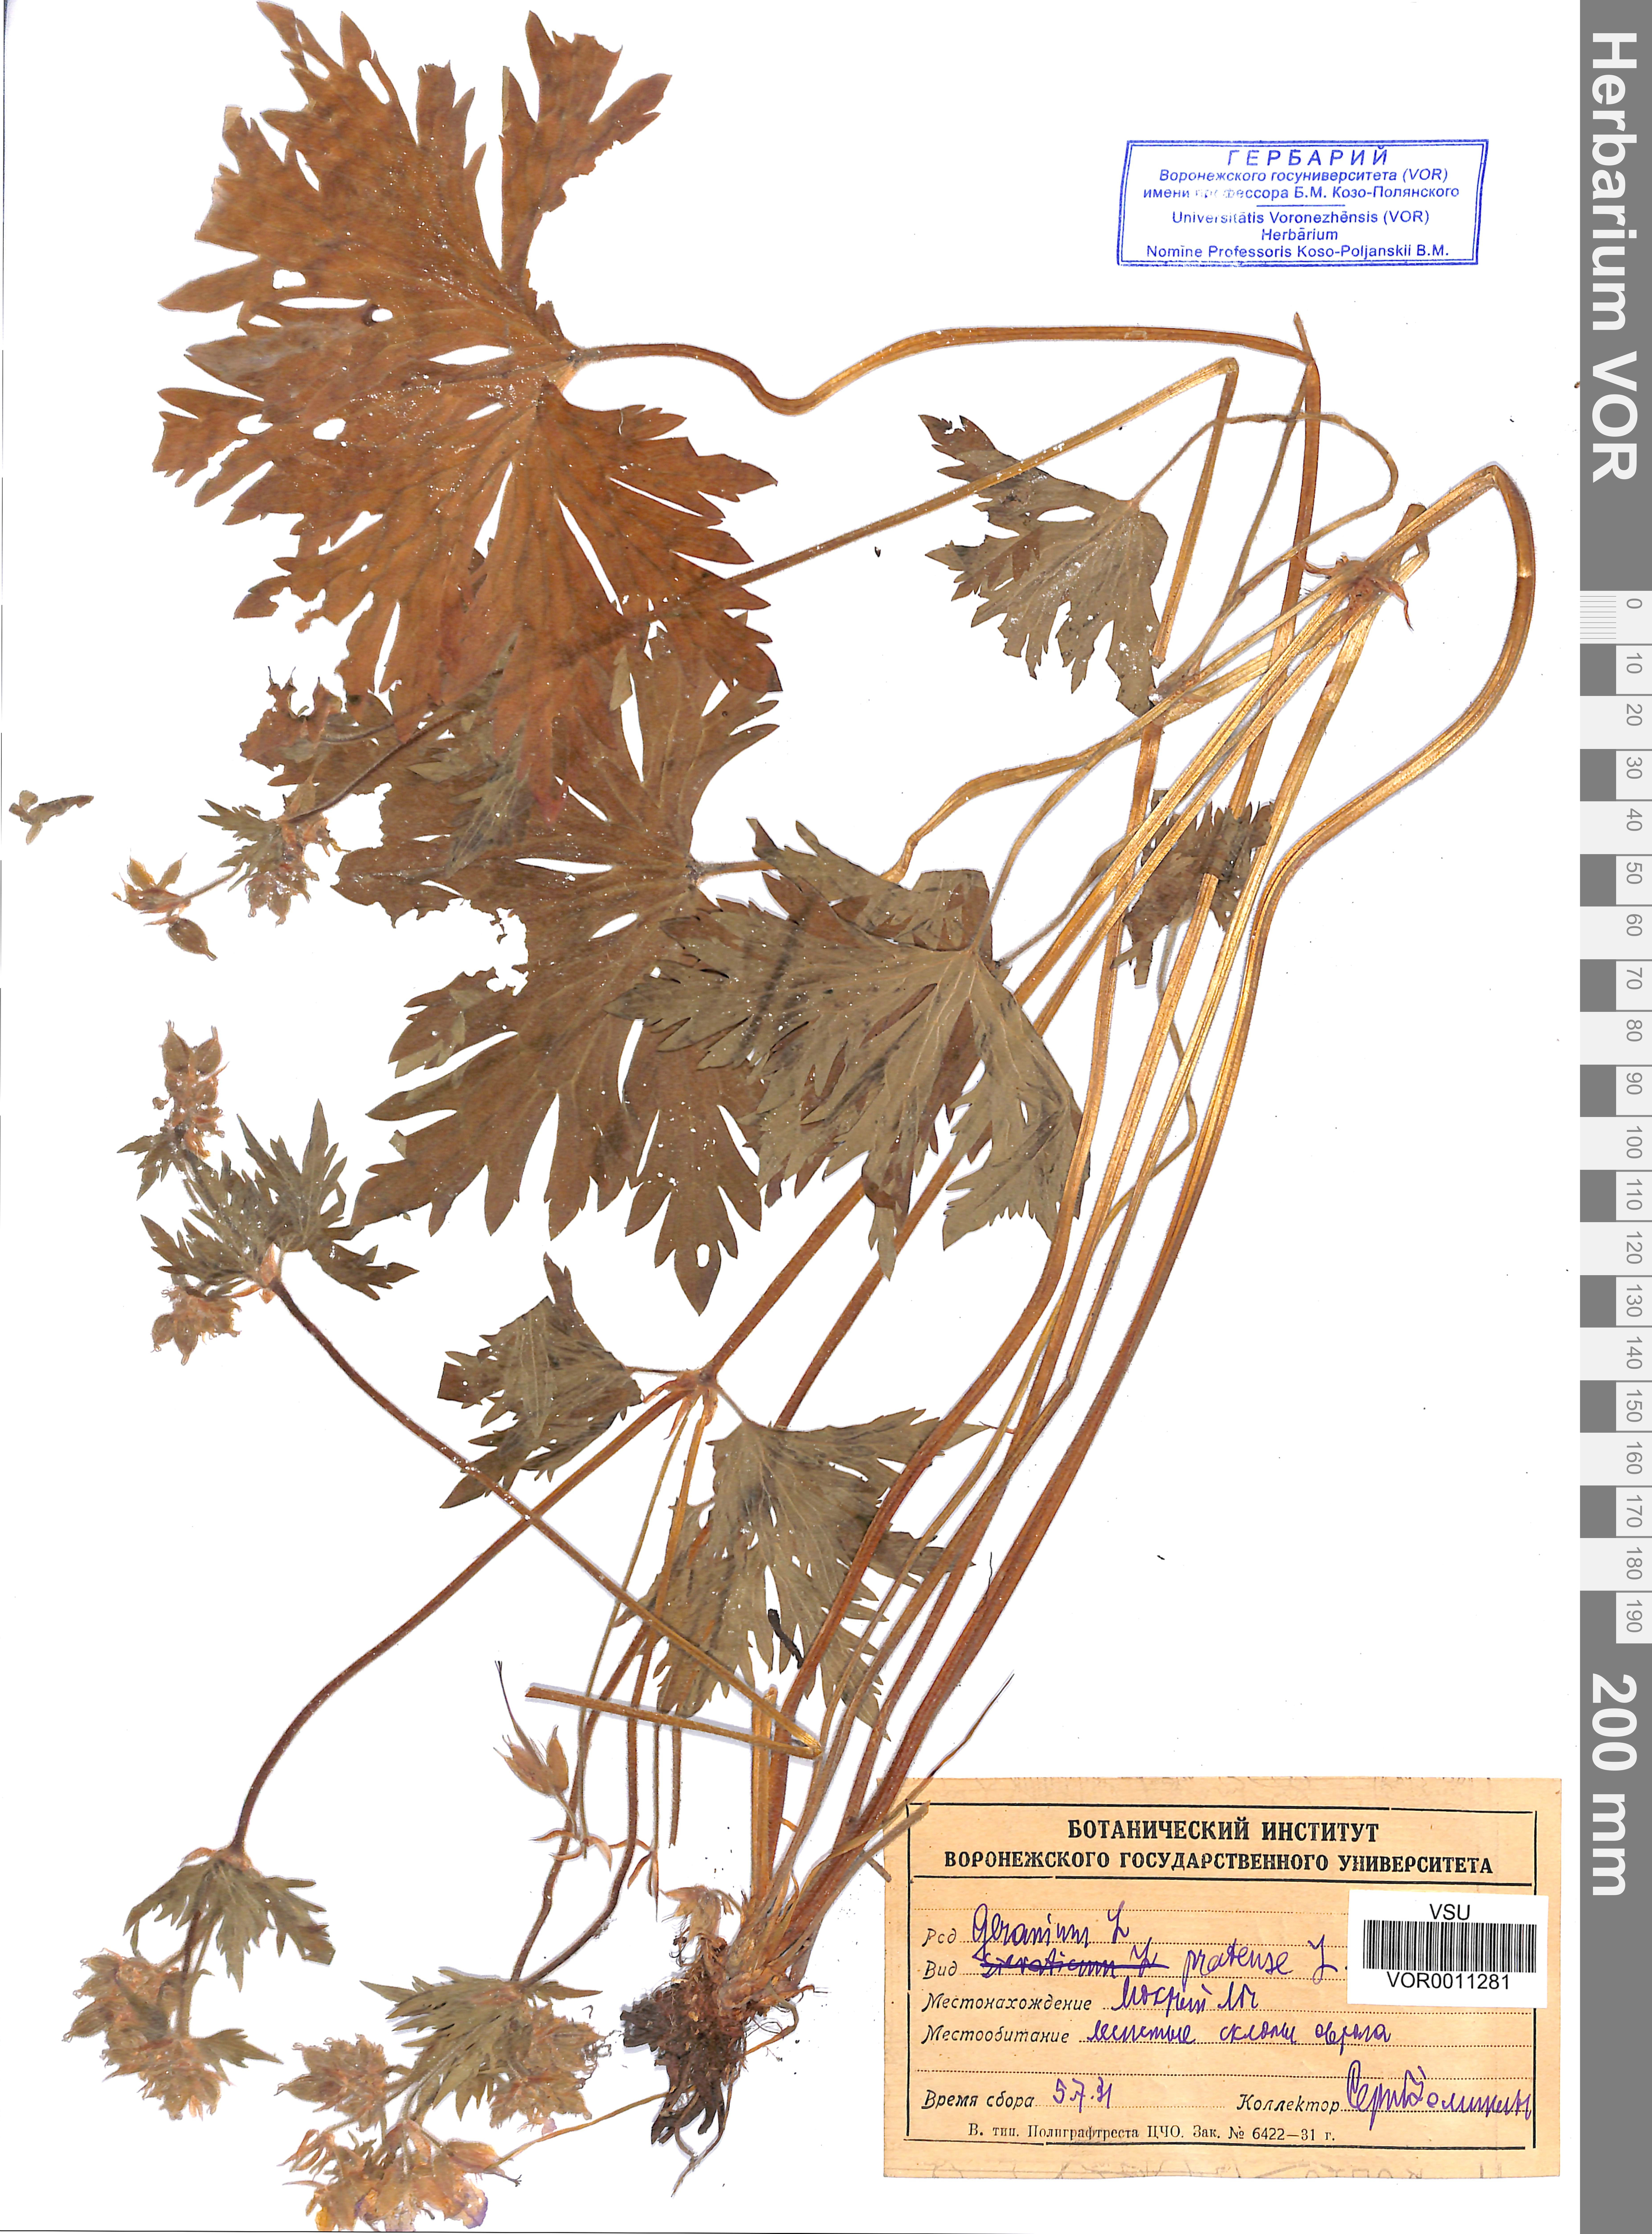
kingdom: Plantae
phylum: Tracheophyta
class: Magnoliopsida
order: Geraniales
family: Geraniaceae
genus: Geranium
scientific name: Geranium pratense
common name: Meadow crane's-bill
